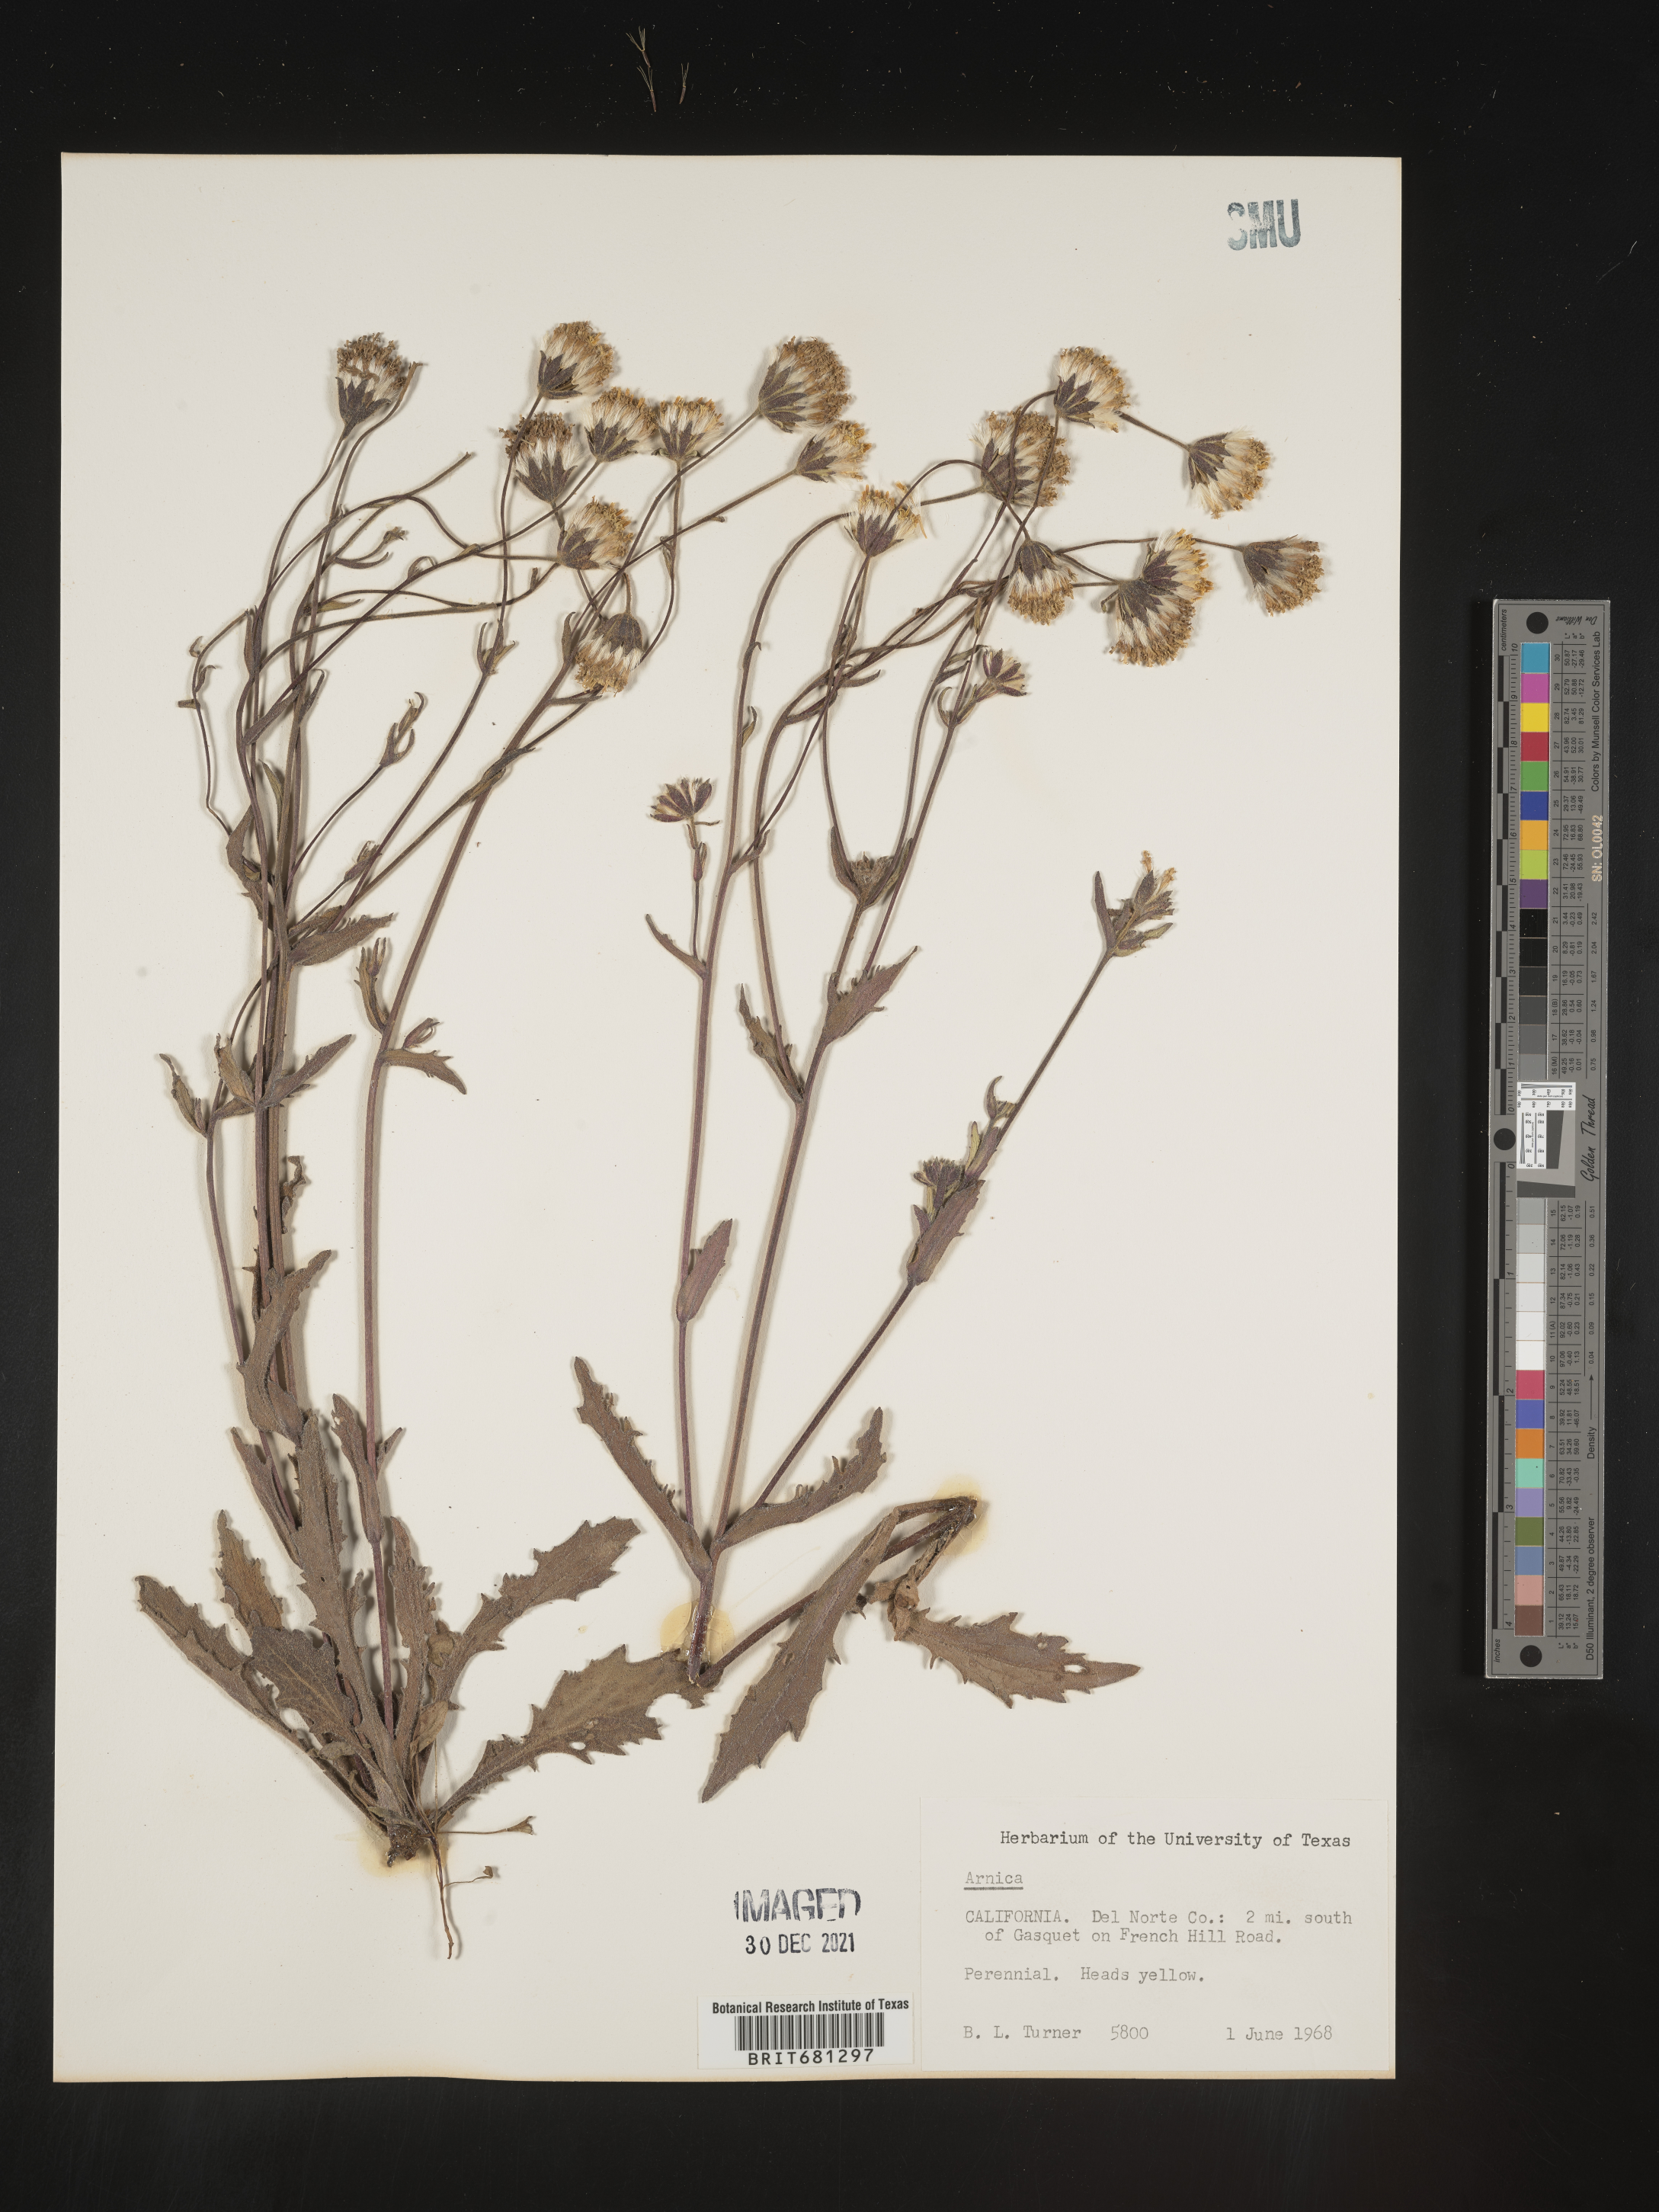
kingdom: Plantae
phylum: Tracheophyta
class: Magnoliopsida
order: Asterales
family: Asteraceae
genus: Arnica
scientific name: Arnica
